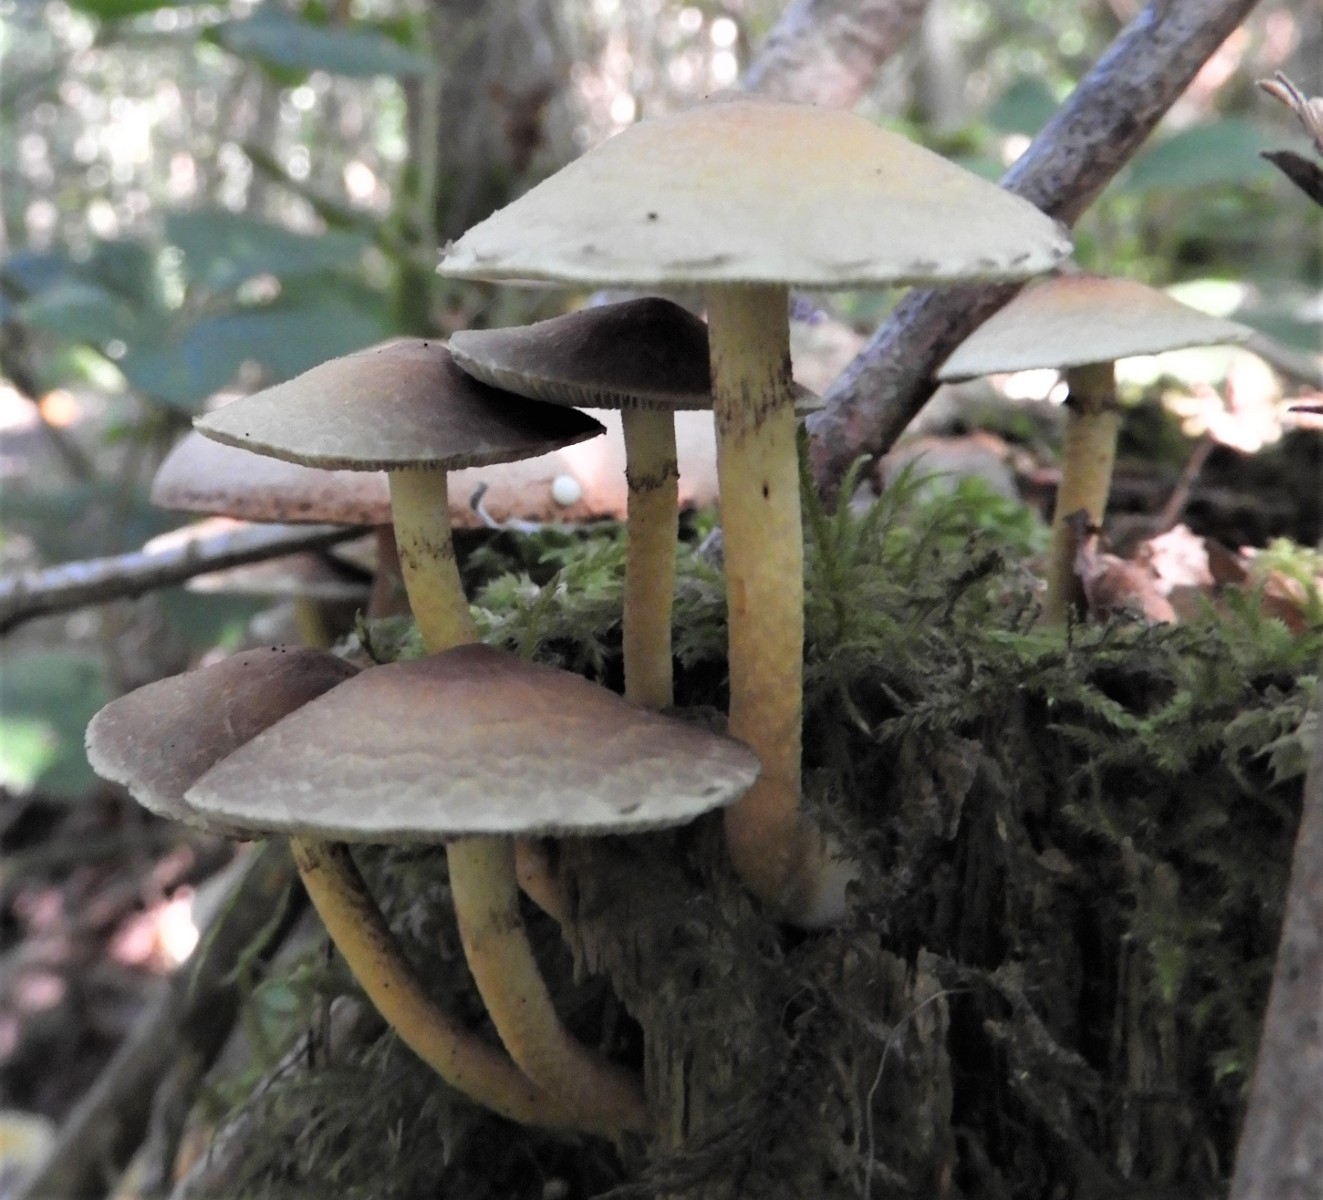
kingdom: Fungi
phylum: Basidiomycota
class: Agaricomycetes
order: Agaricales
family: Strophariaceae
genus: Hypholoma
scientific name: Hypholoma fasciculare
